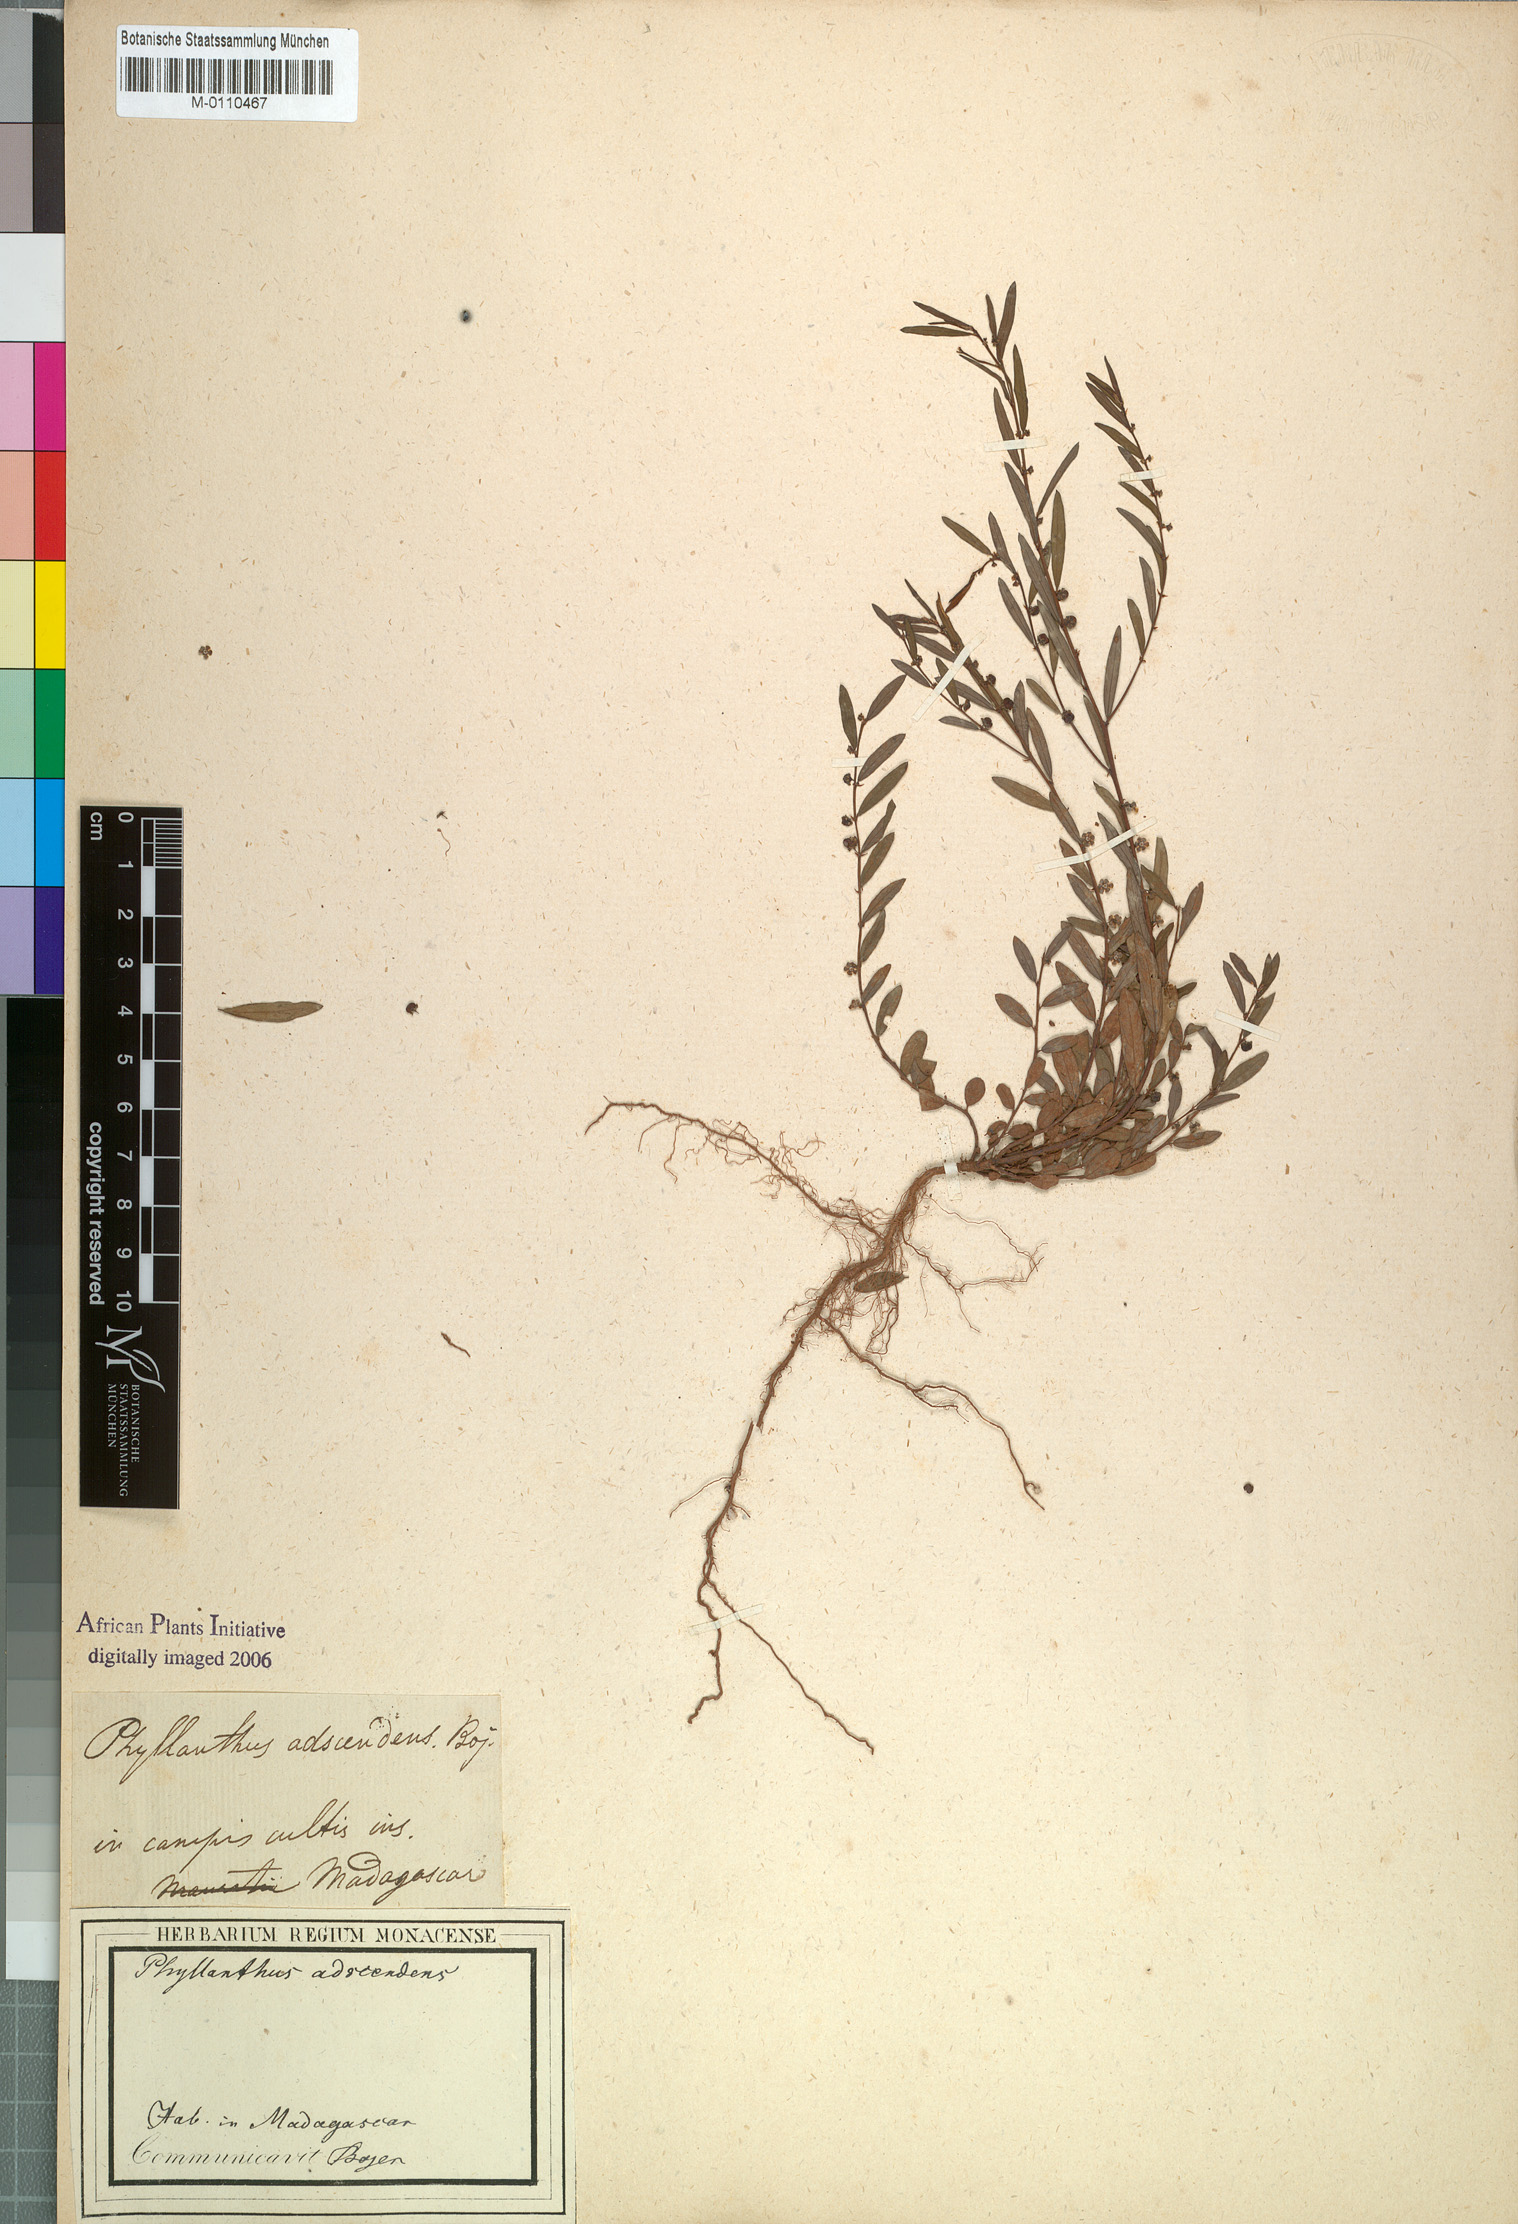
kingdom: Plantae
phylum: Tracheophyta
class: Magnoliopsida
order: Malpighiales
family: Phyllanthaceae
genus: Phyllanthus
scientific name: Phyllanthus
